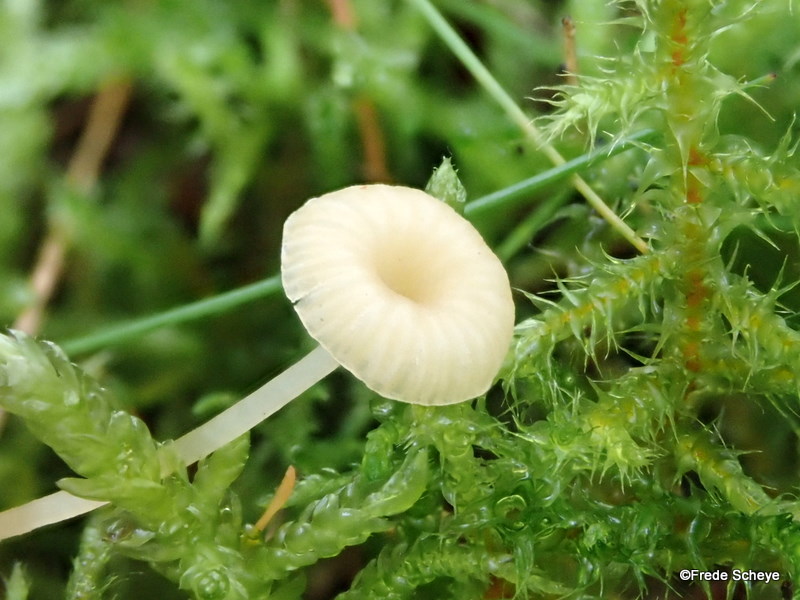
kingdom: Fungi
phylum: Basidiomycota
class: Agaricomycetes
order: Hymenochaetales
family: Rickenellaceae
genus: Rickenella
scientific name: Rickenella fibula
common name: orange mosnavlehat
